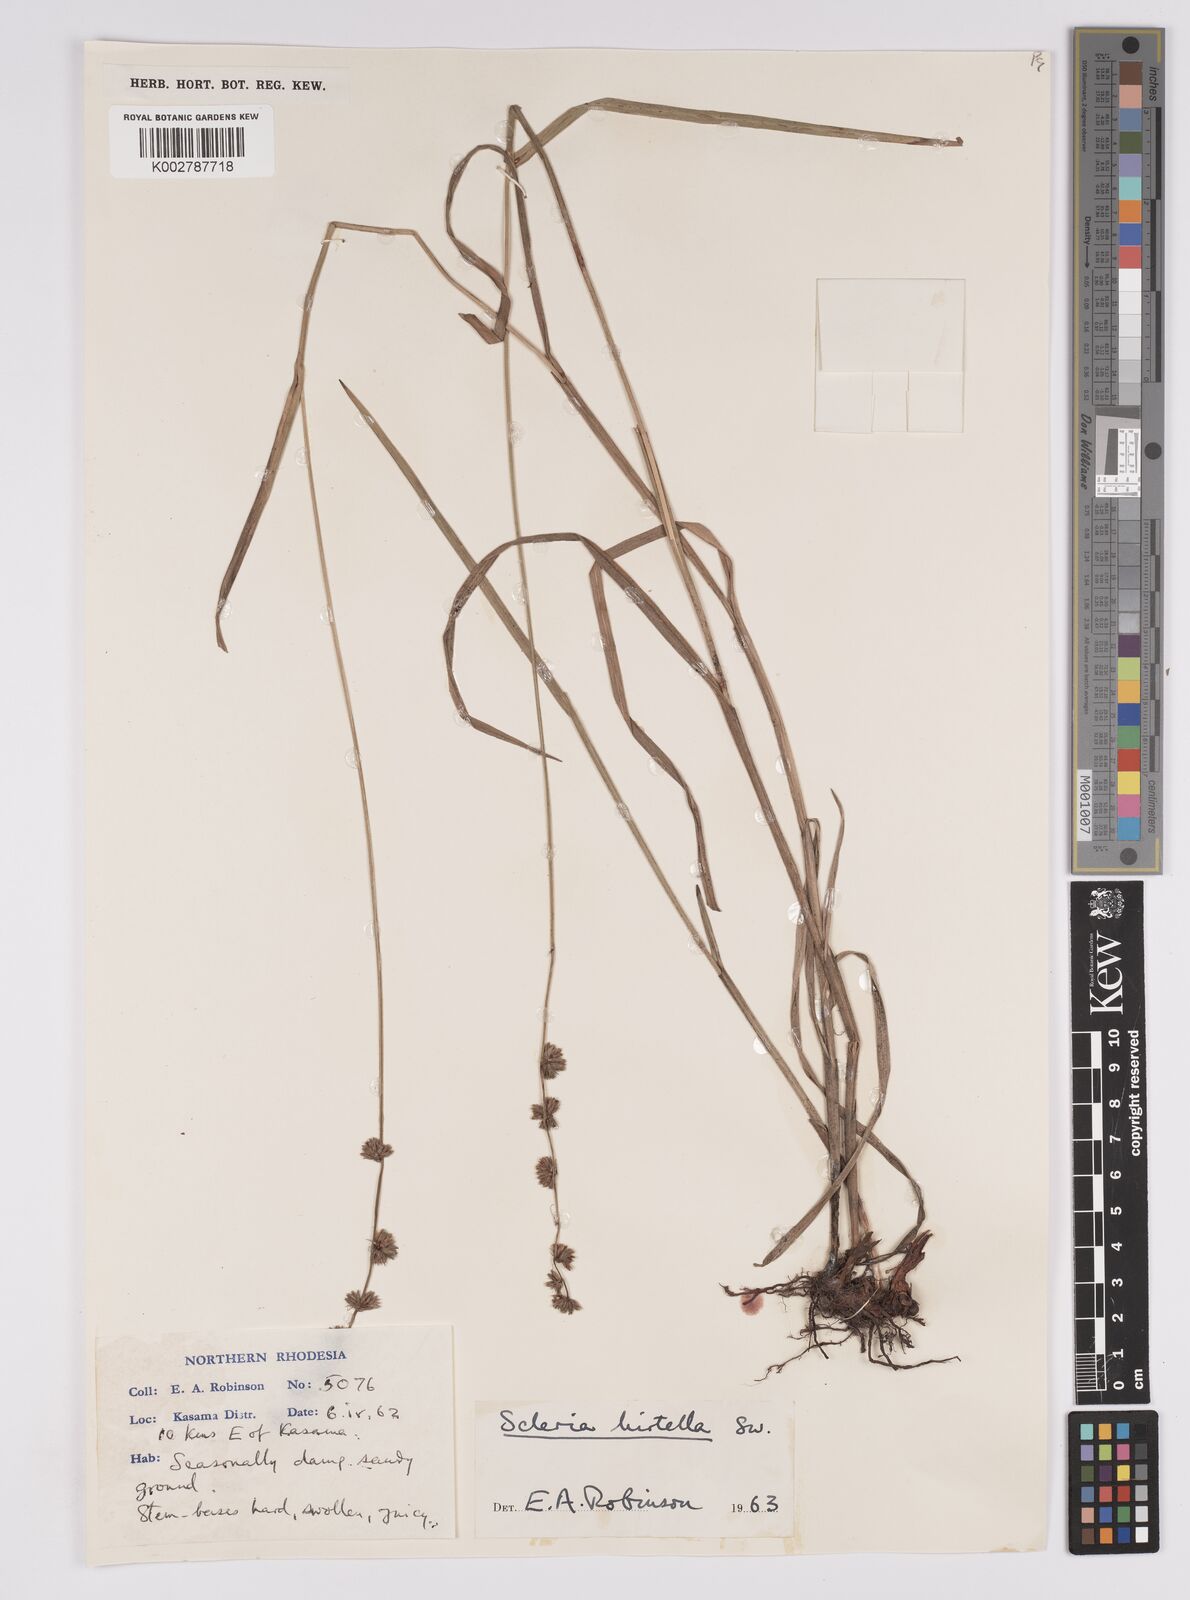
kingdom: Plantae
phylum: Tracheophyta
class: Liliopsida
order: Poales
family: Cyperaceae
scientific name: Cyperaceae
